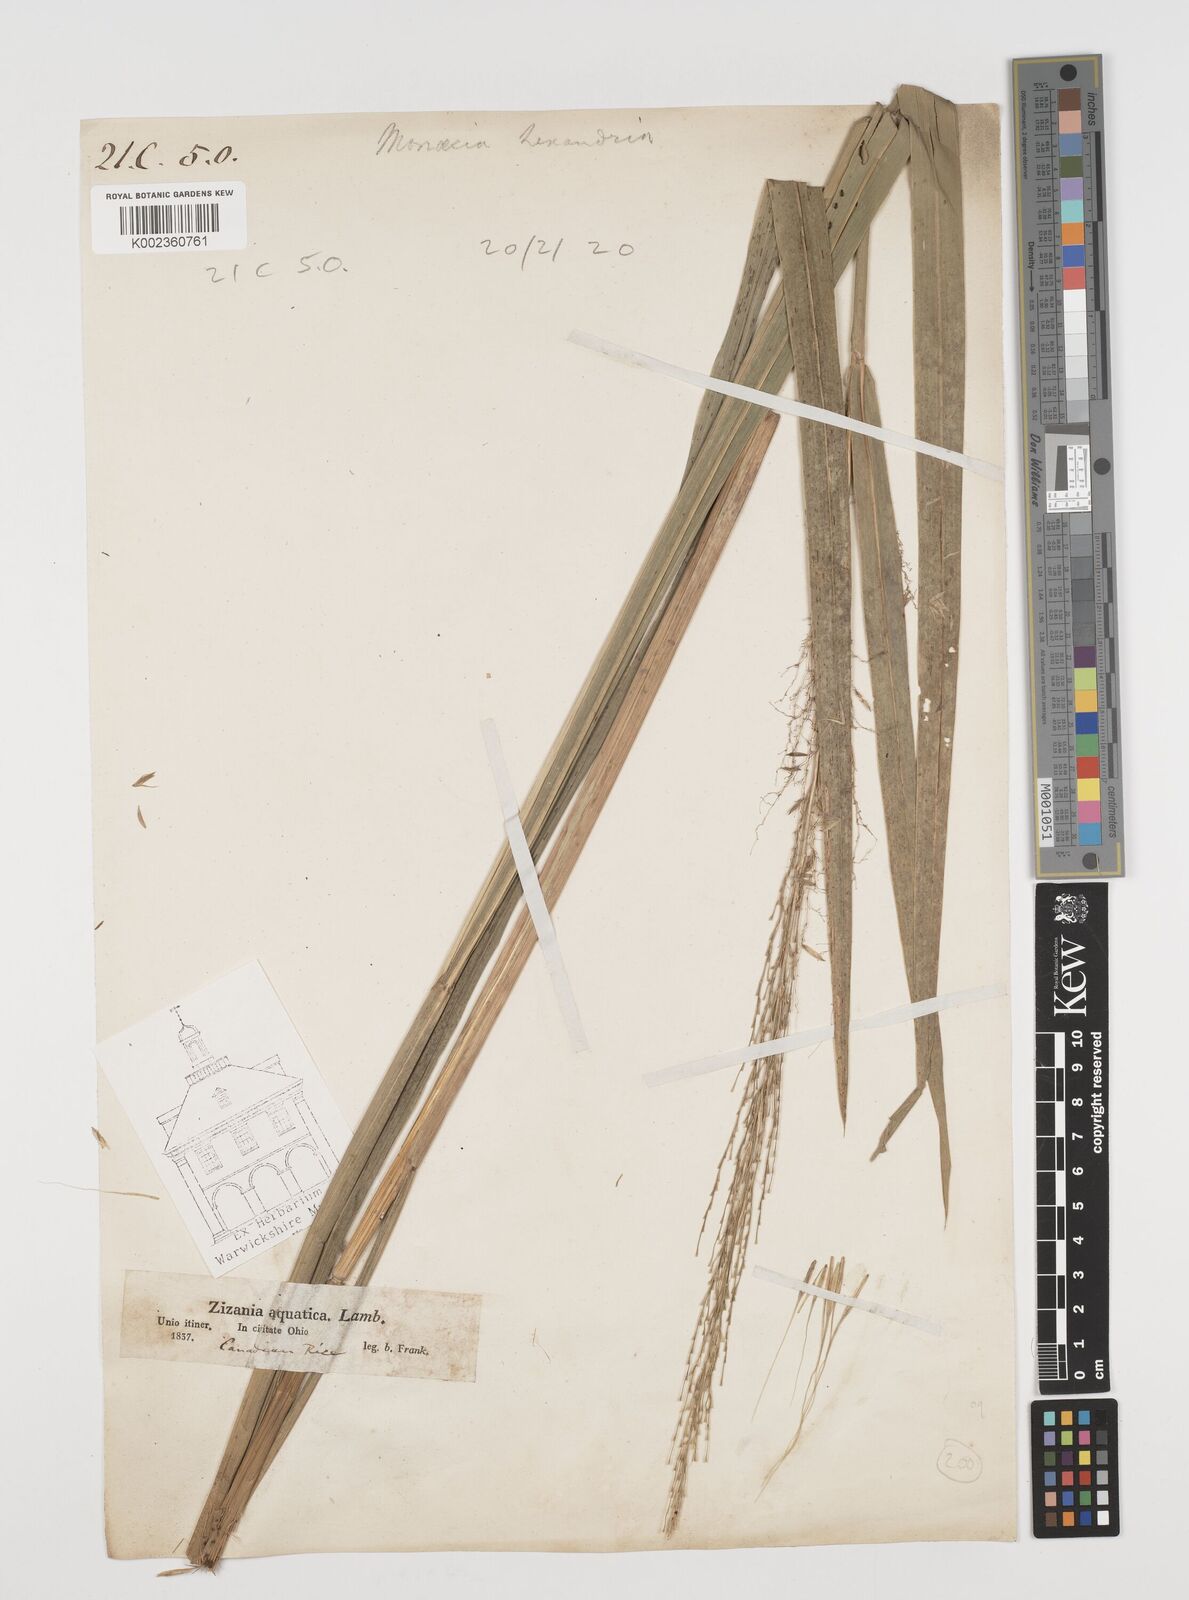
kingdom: Plantae
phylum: Tracheophyta
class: Liliopsida
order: Poales
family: Poaceae
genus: Zizania
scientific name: Zizania aquatica
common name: Annual wildrice
